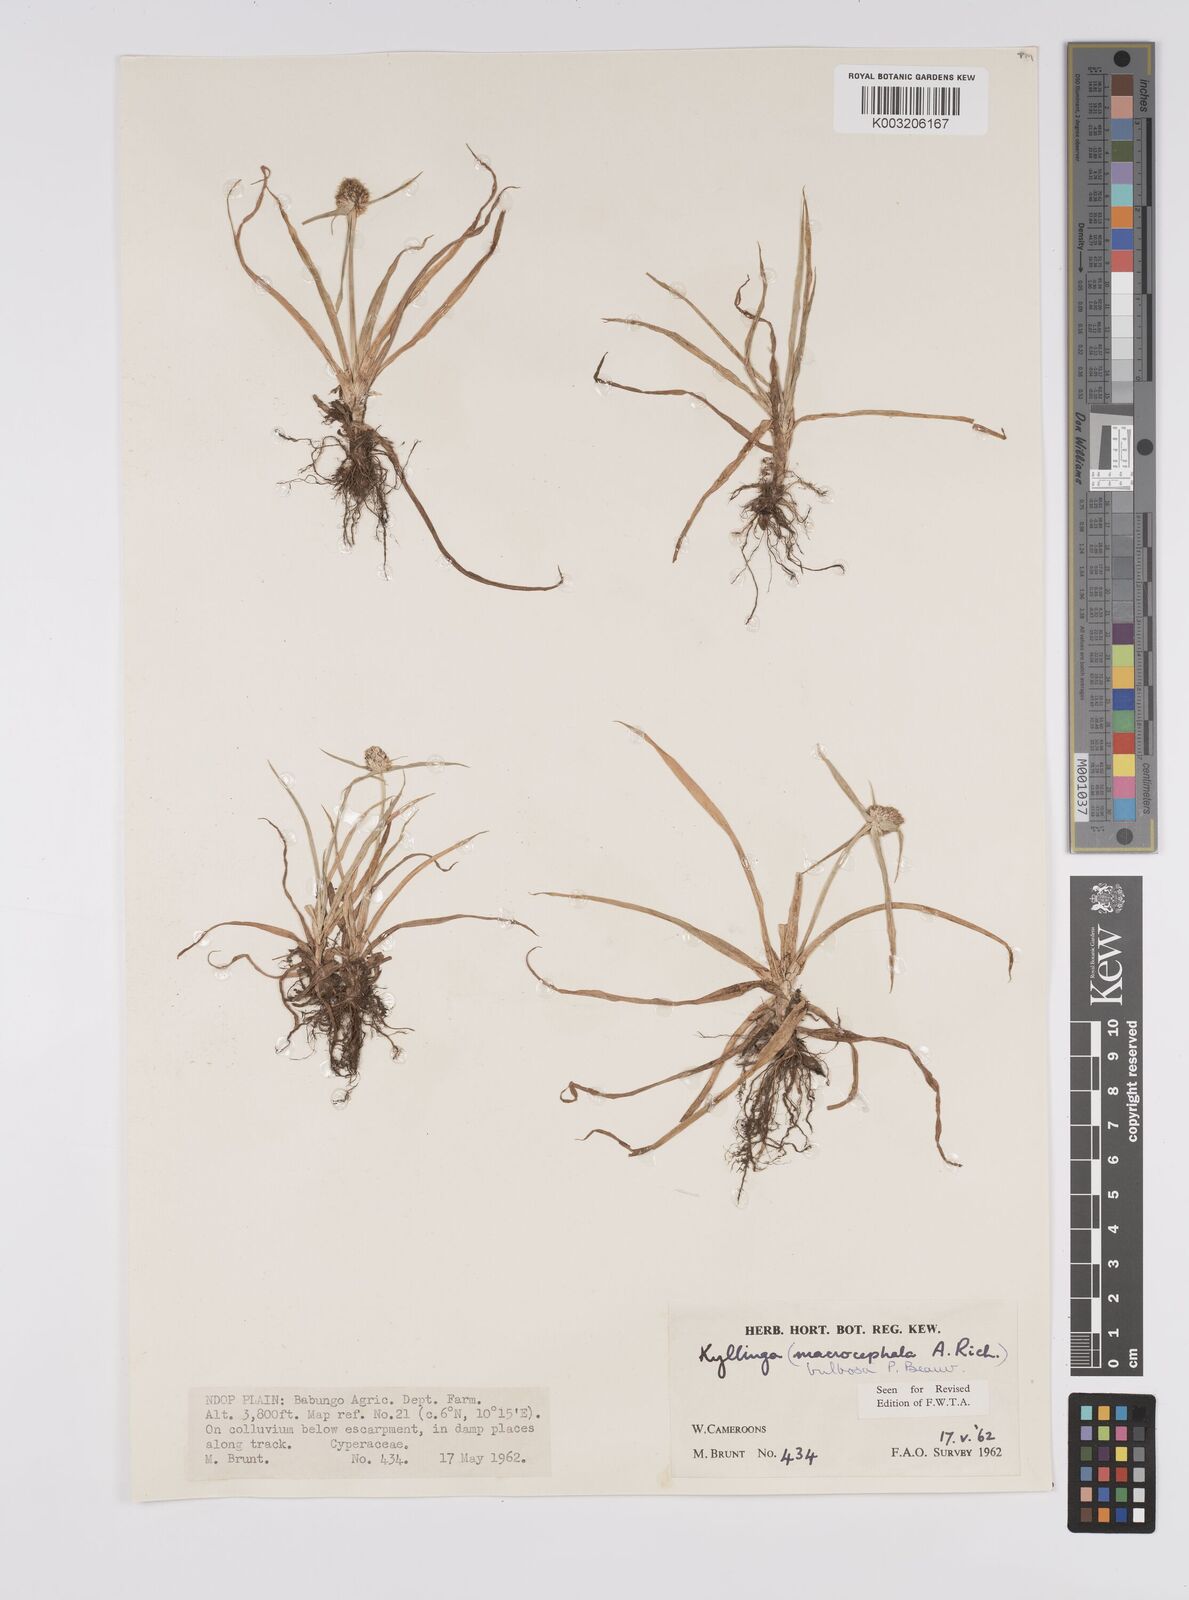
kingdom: Plantae
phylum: Tracheophyta
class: Liliopsida
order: Poales
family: Cyperaceae
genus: Cyperus
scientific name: Cyperus
